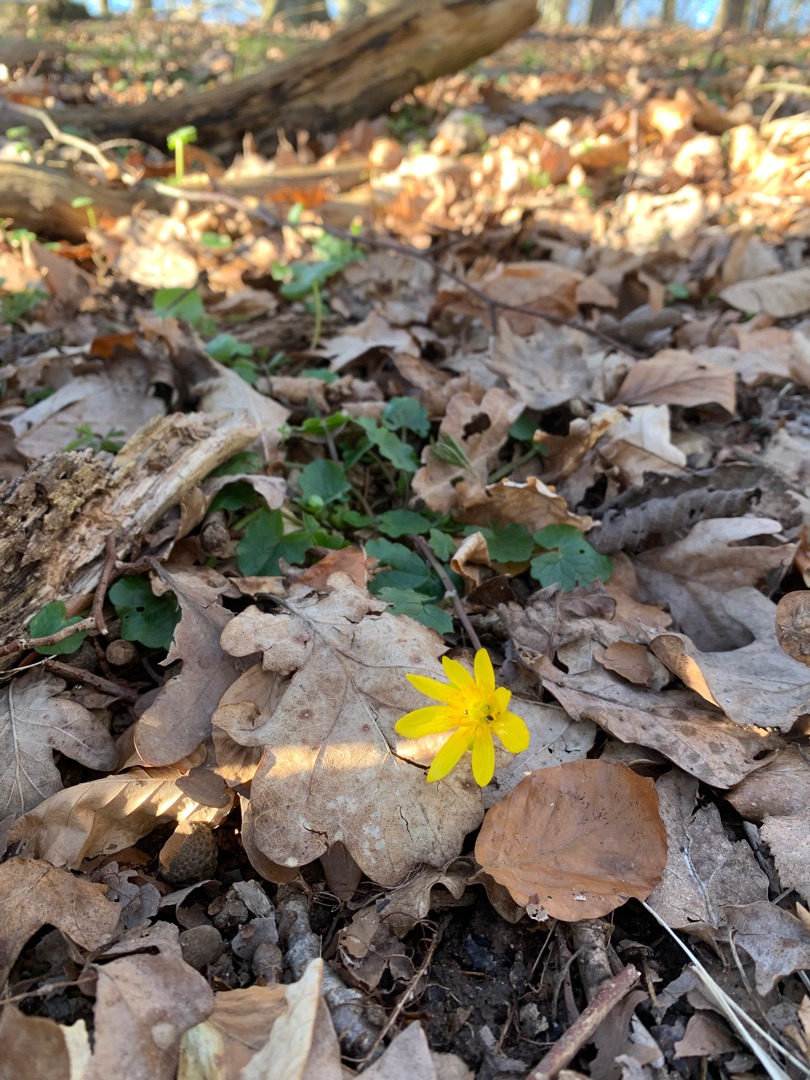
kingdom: Plantae
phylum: Tracheophyta
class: Magnoliopsida
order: Ranunculales
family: Ranunculaceae
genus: Ficaria
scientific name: Ficaria verna
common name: Vorterod
